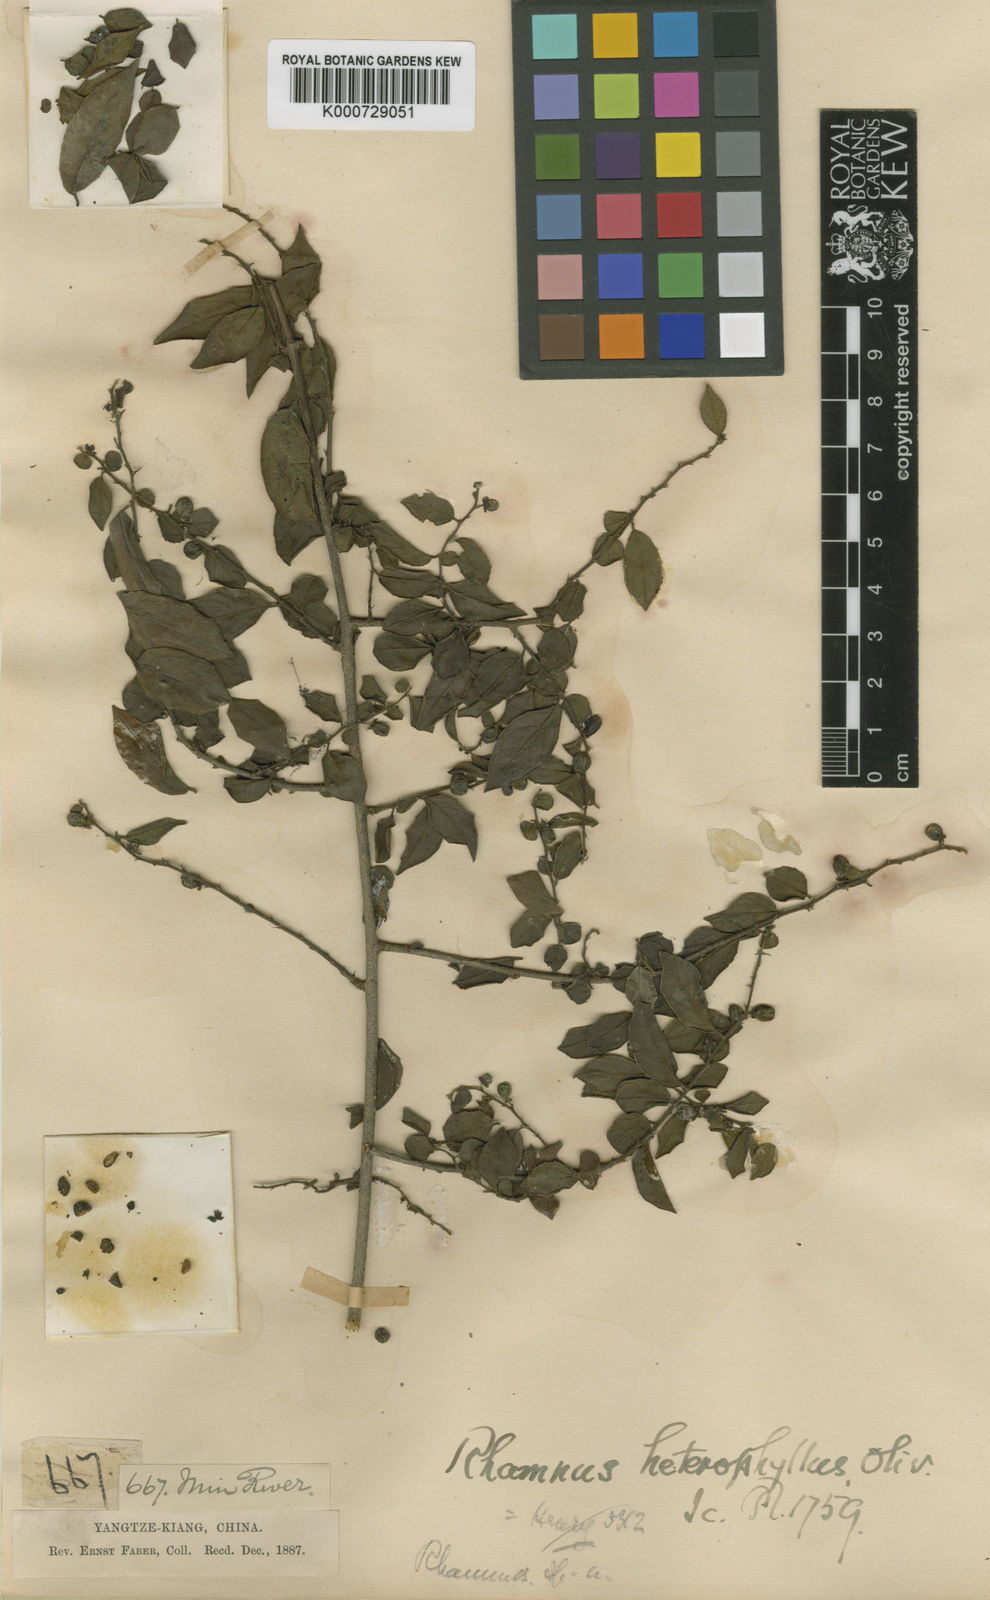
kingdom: Plantae
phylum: Tracheophyta
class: Magnoliopsida
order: Rosales
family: Rhamnaceae
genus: Rhamnus
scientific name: Rhamnus heterophylla
